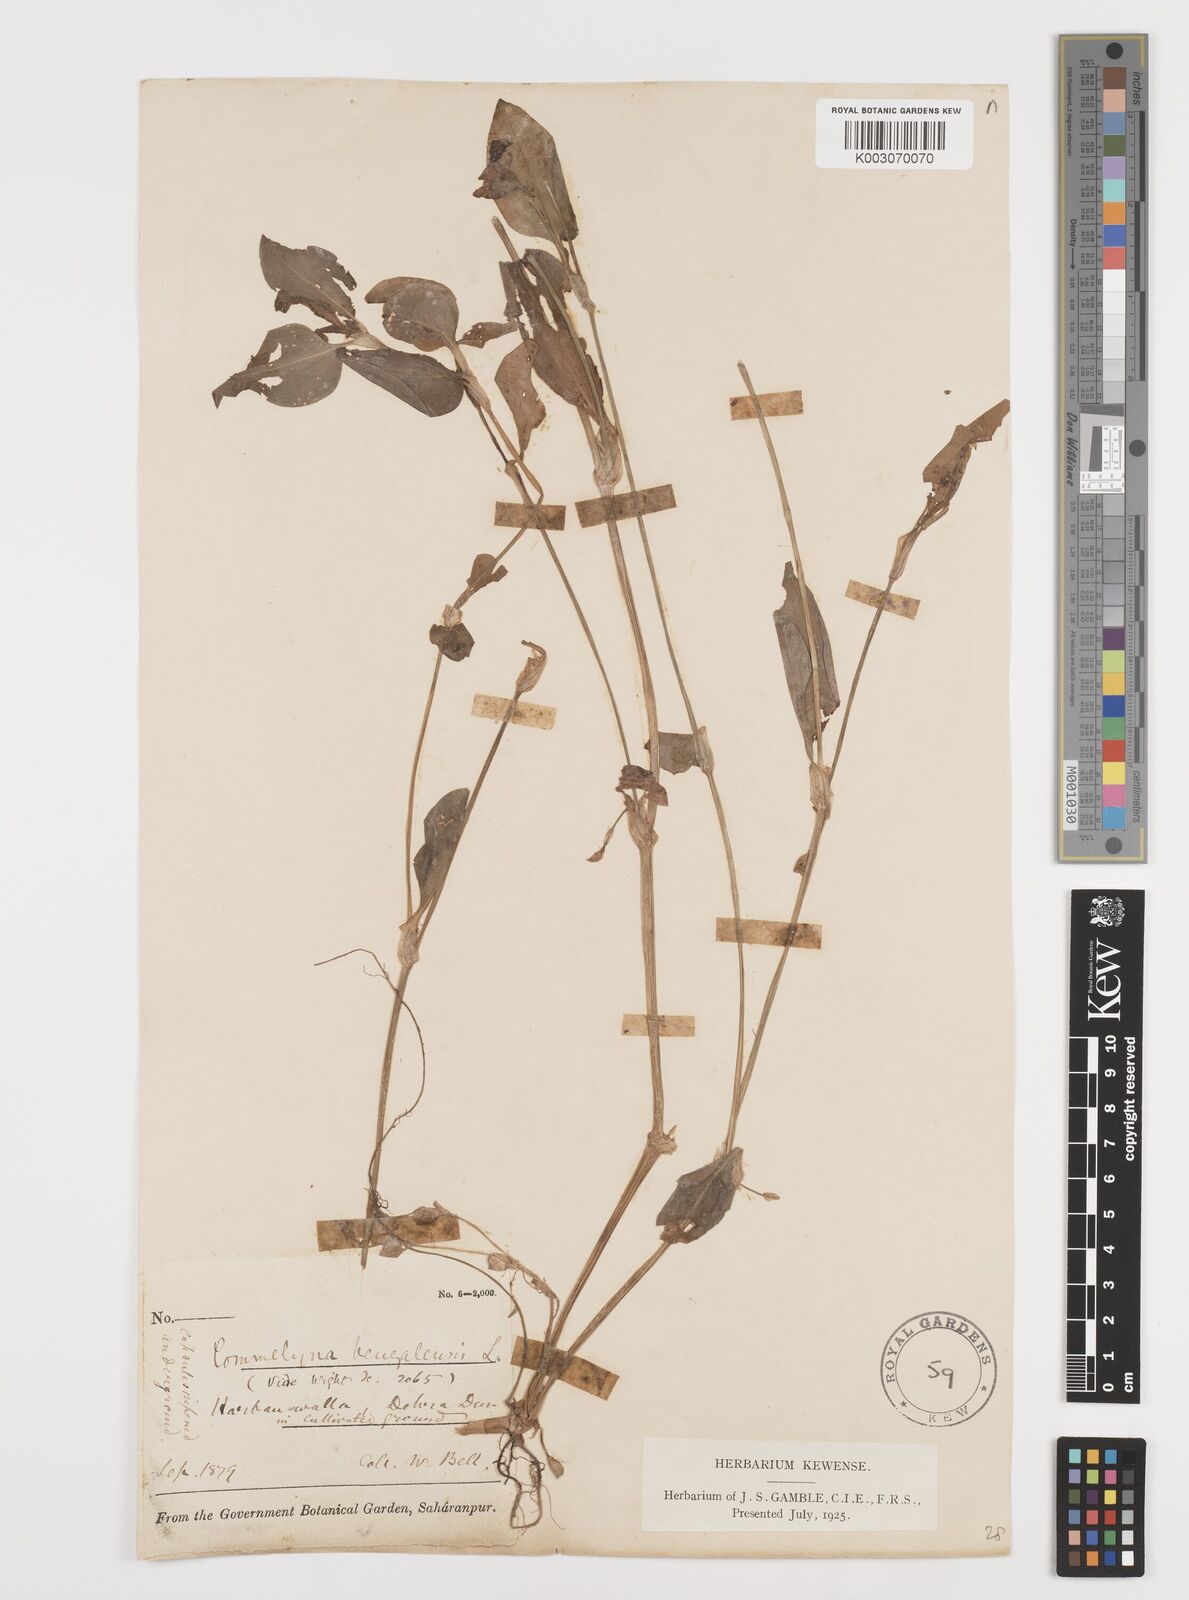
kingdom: Plantae
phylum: Tracheophyta
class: Liliopsida
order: Commelinales
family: Commelinaceae
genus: Commelina
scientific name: Commelina benghalensis
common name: Jio
